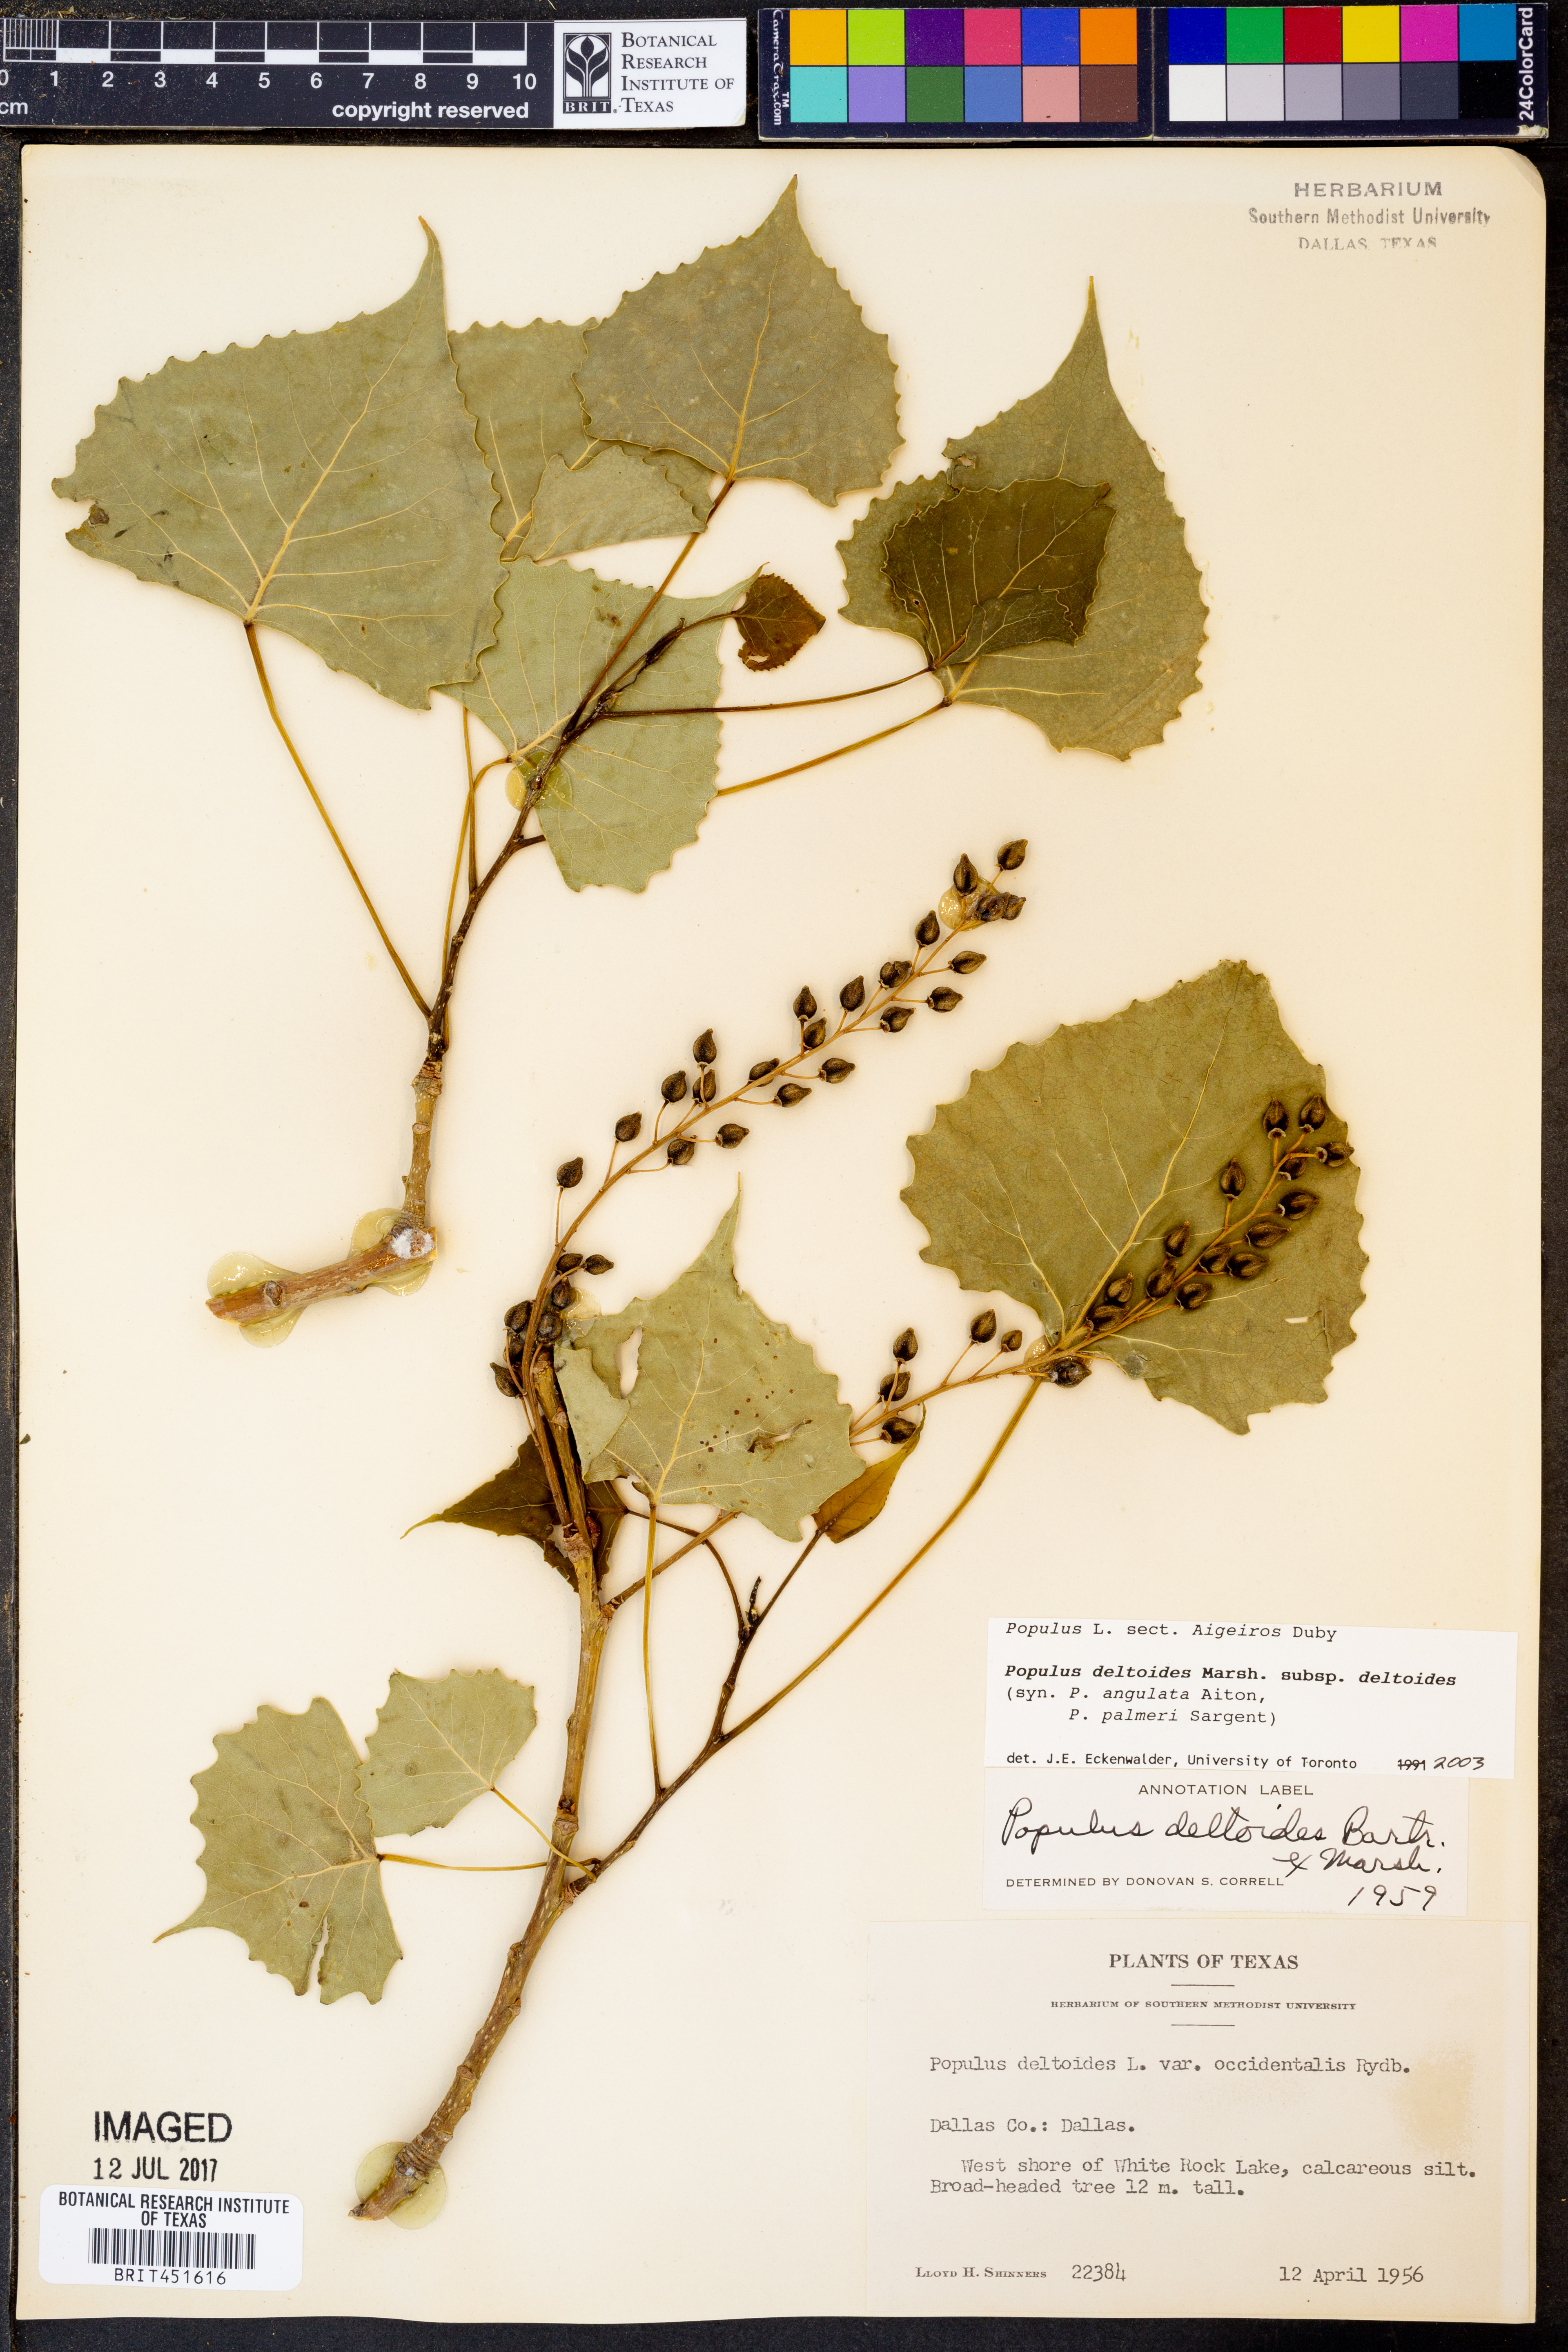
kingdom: Plantae
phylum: Tracheophyta
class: Magnoliopsida
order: Malpighiales
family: Salicaceae
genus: Populus
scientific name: Populus deltoides
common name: Eastern cottonwood
